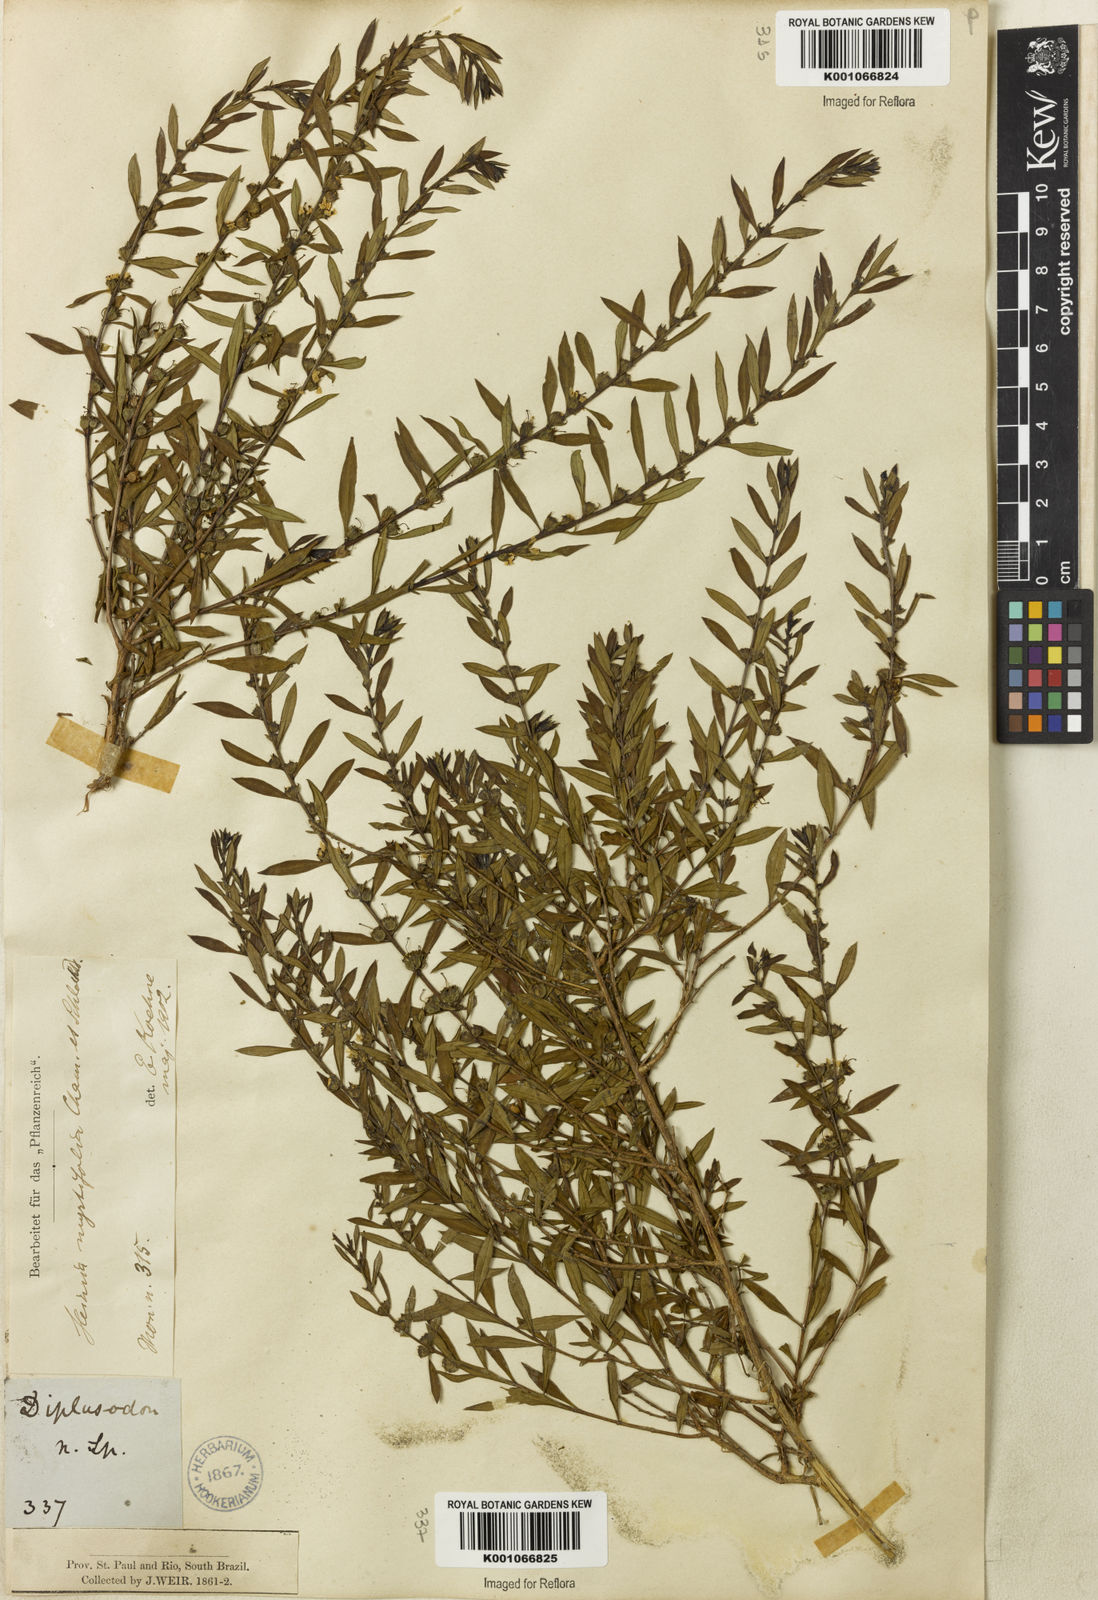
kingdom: Plantae
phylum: Tracheophyta
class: Magnoliopsida
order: Myrtales
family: Lythraceae
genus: Heimia
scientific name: Heimia apetala
